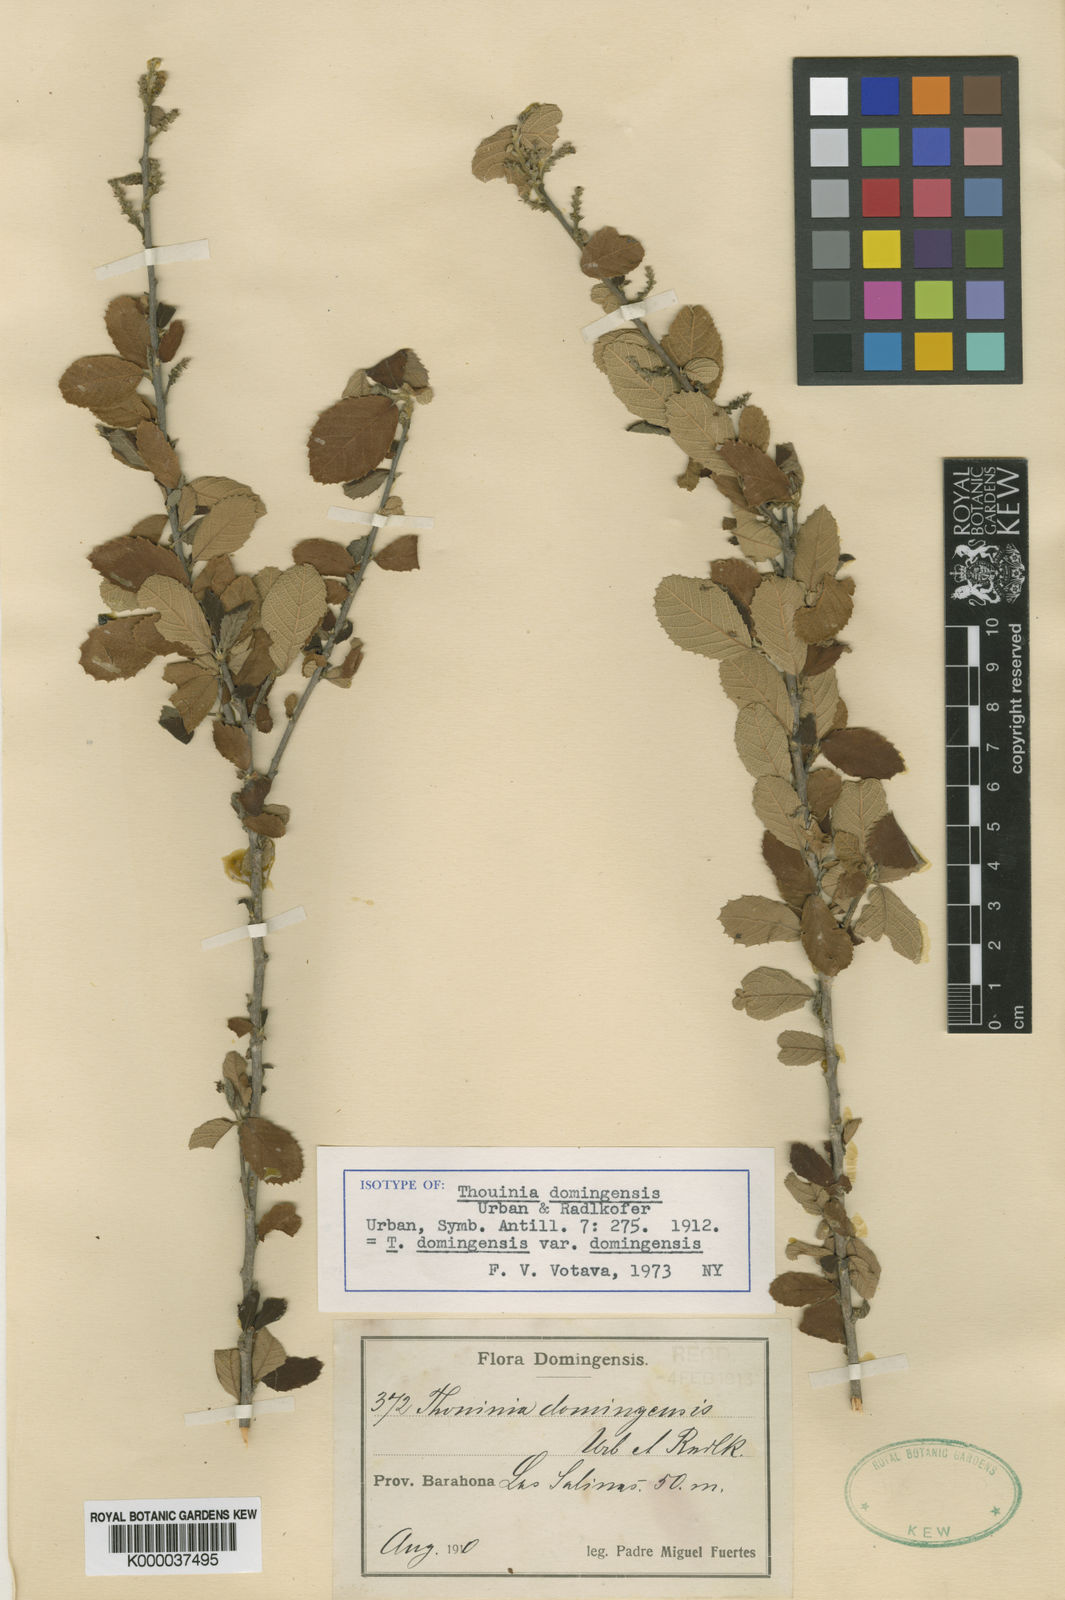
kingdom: Plantae
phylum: Tracheophyta
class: Magnoliopsida
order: Sapindales
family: Sapindaceae
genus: Thouinia
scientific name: Thouinia domingensis
